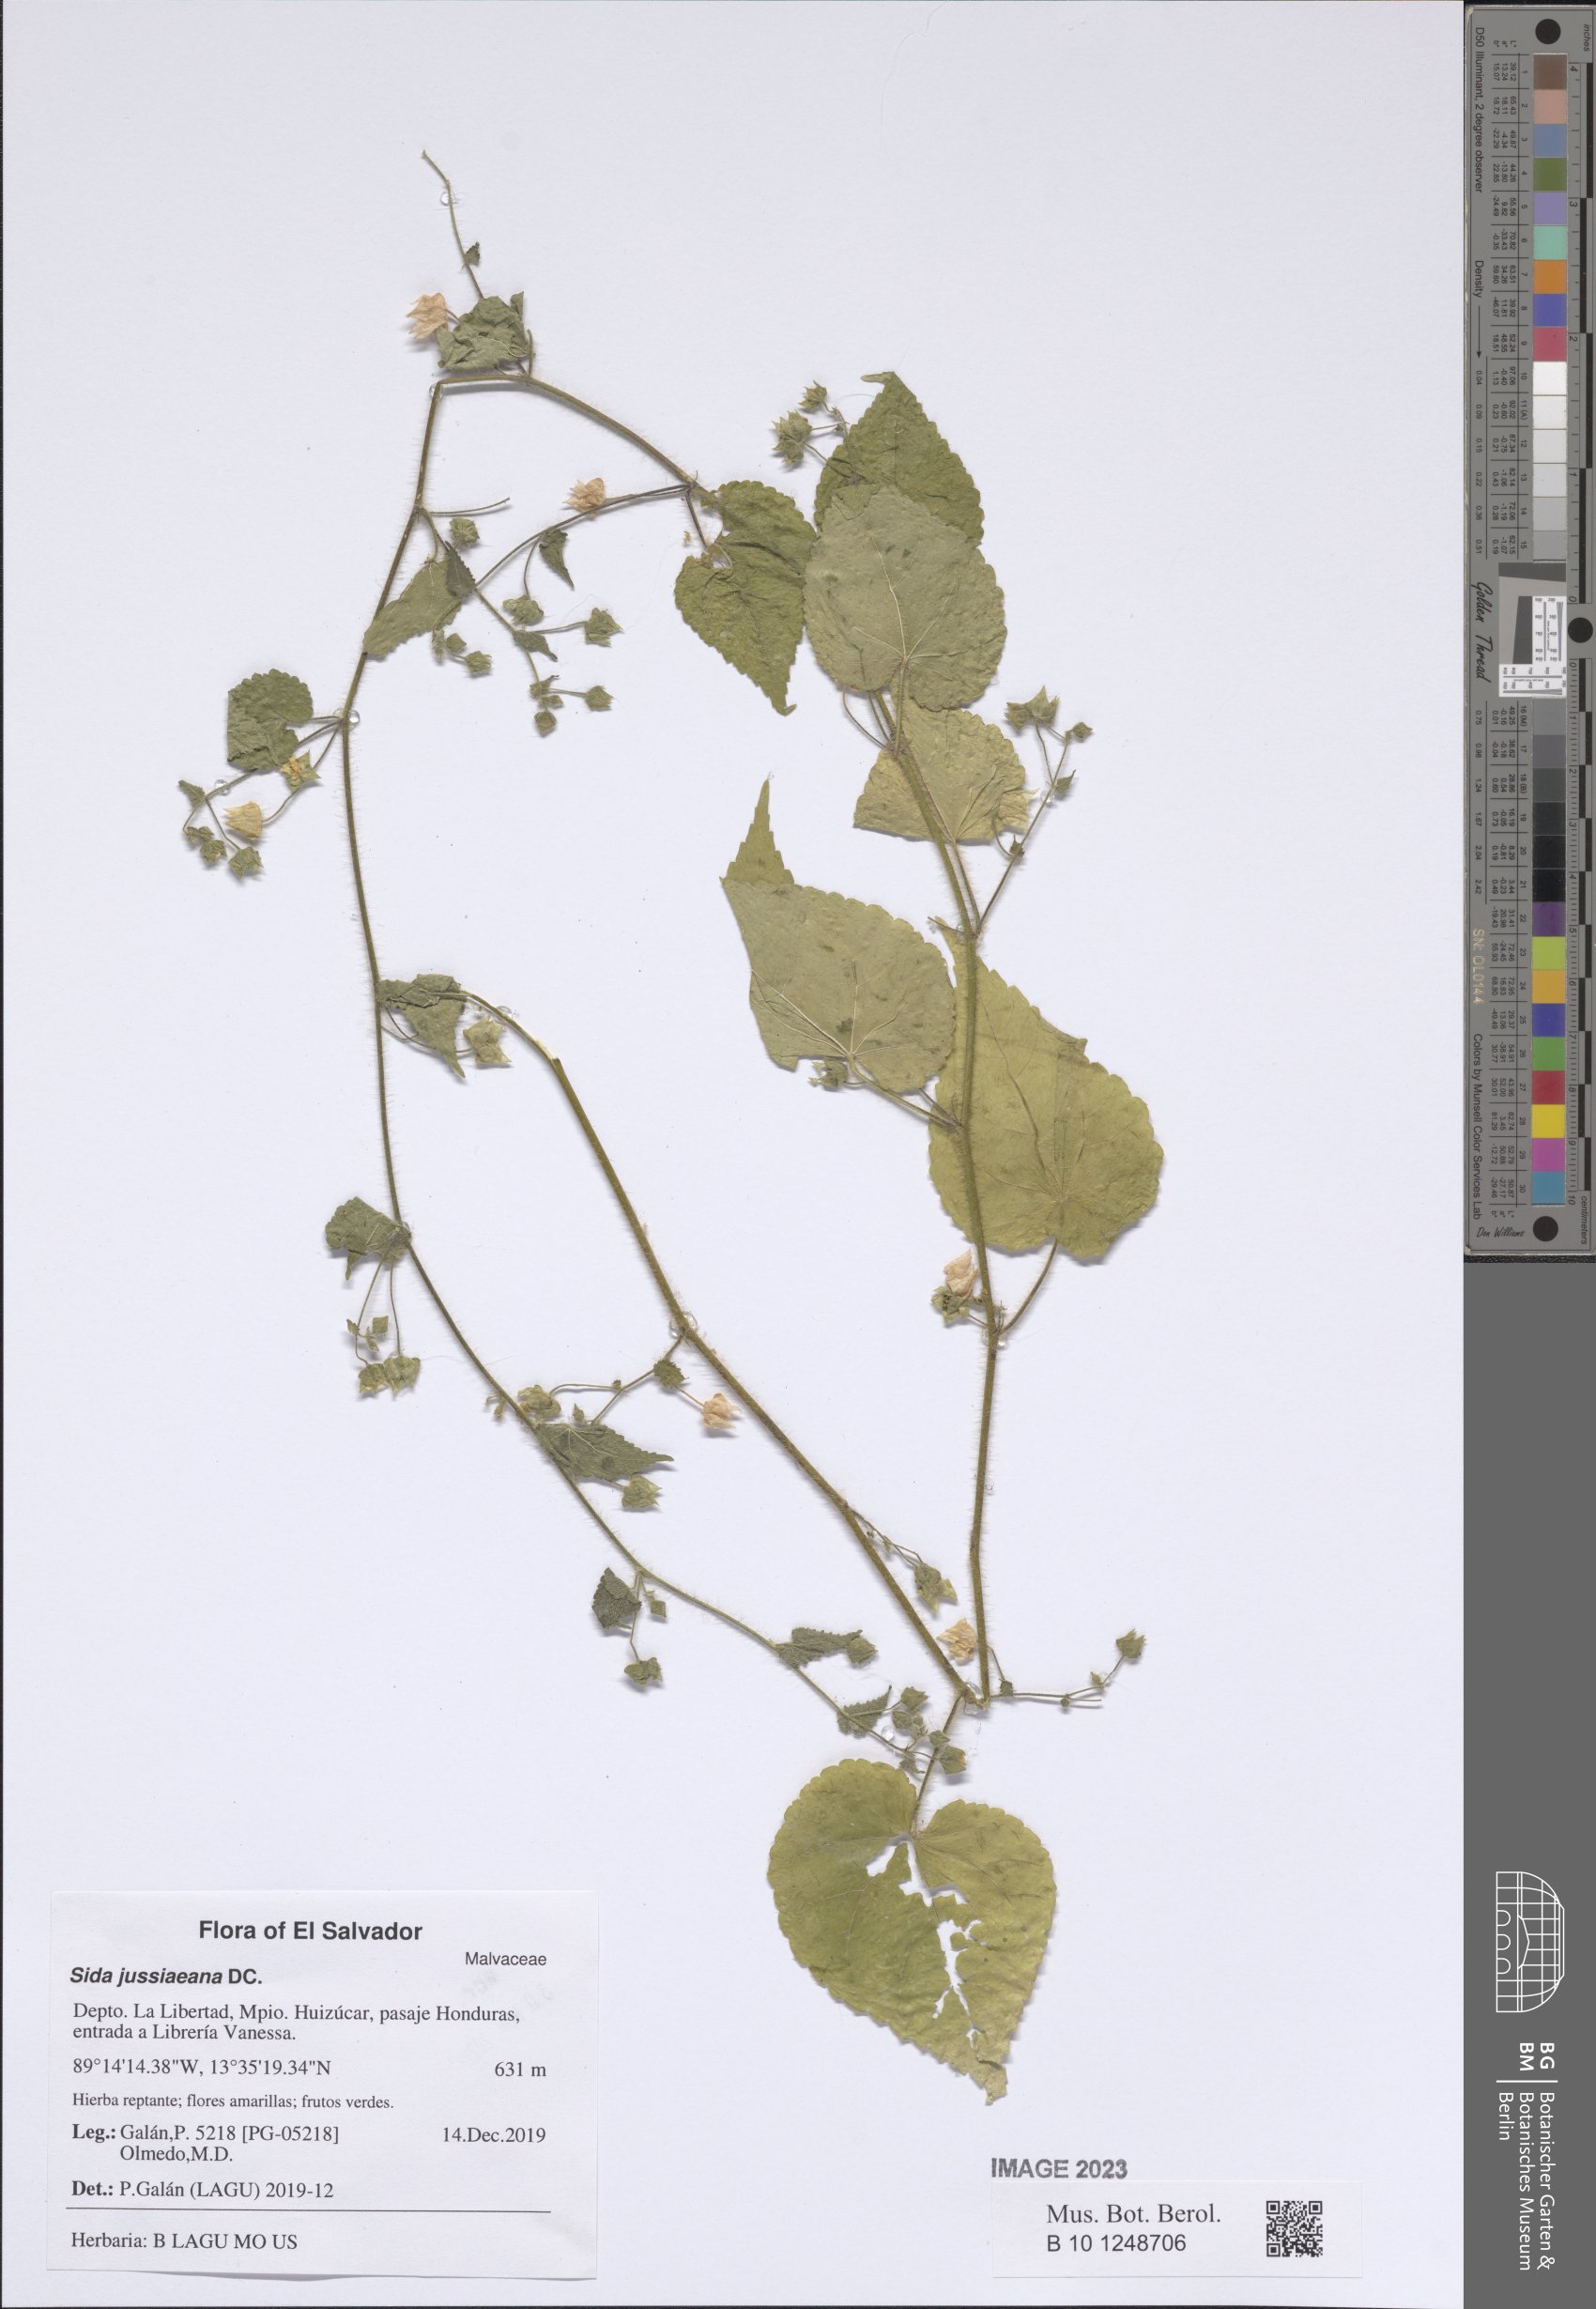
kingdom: Plantae
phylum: Tracheophyta
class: Magnoliopsida
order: Malvales
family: Malvaceae
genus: Sida
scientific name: Sida jussiaeana
